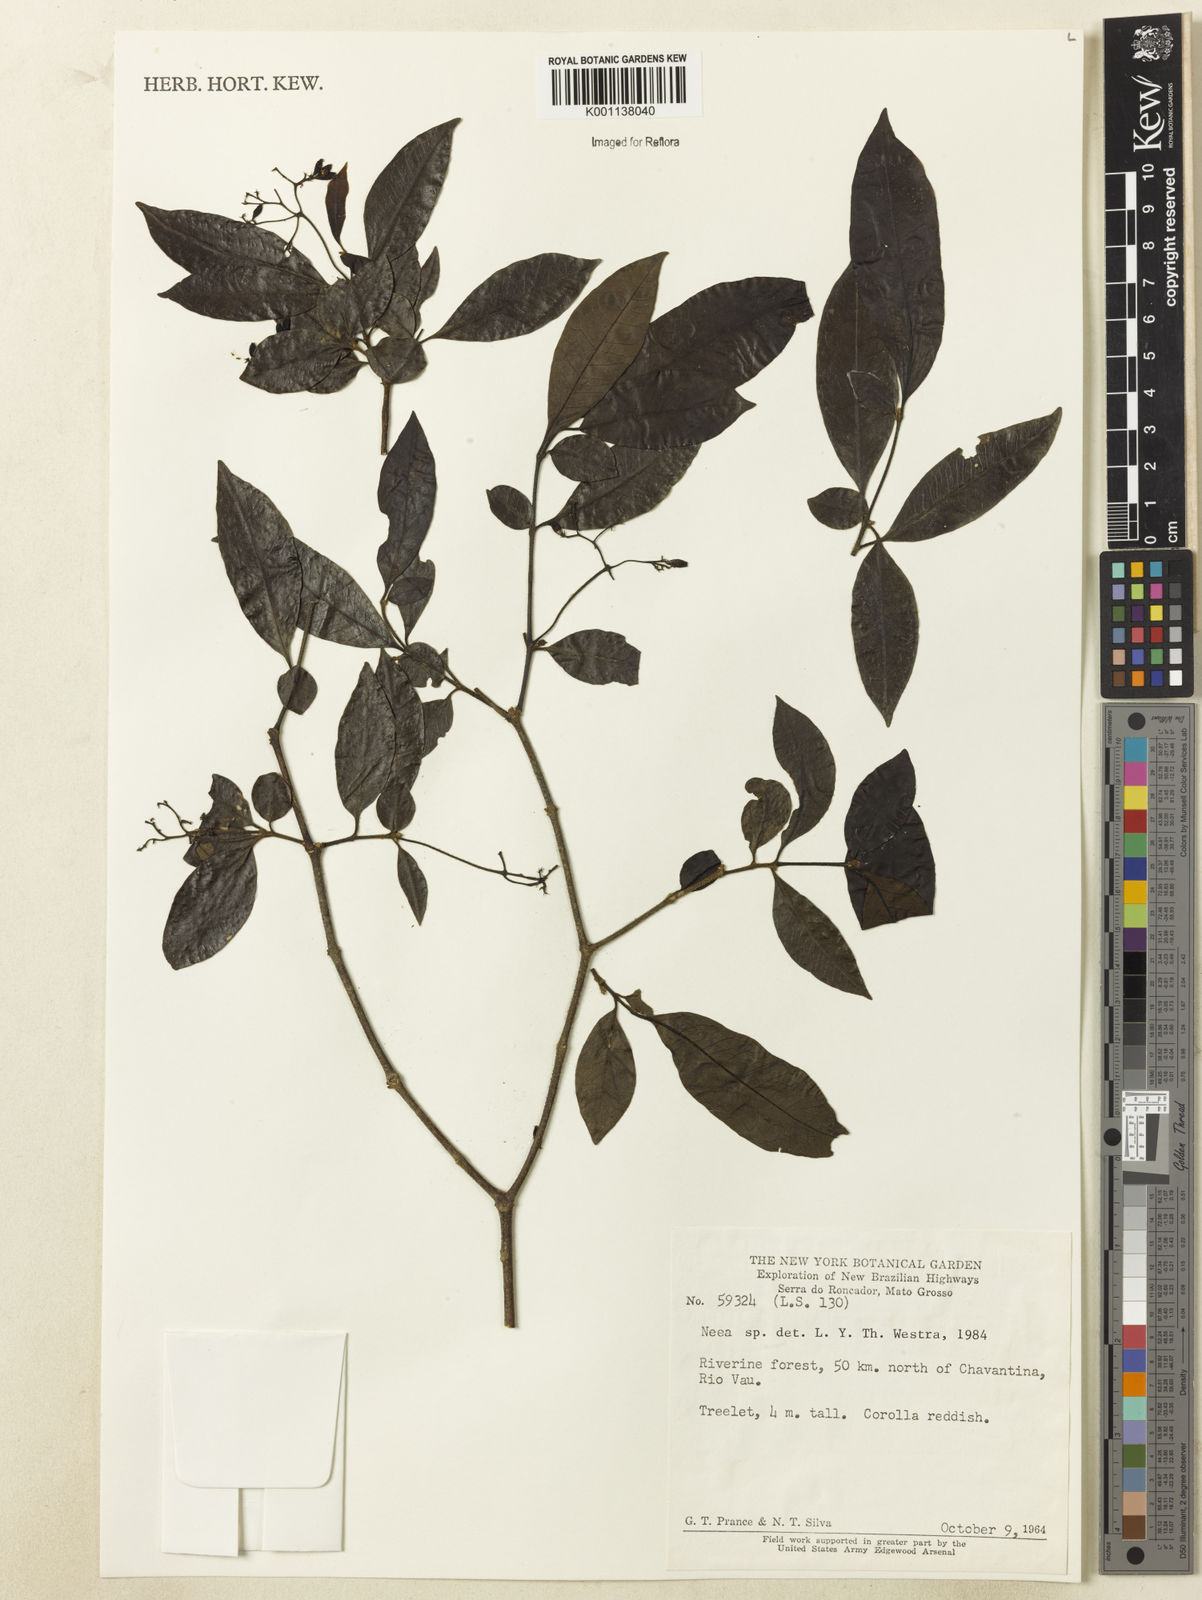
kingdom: Plantae
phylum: Tracheophyta
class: Magnoliopsida
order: Caryophyllales
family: Nyctaginaceae
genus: Neea
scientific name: Neea
